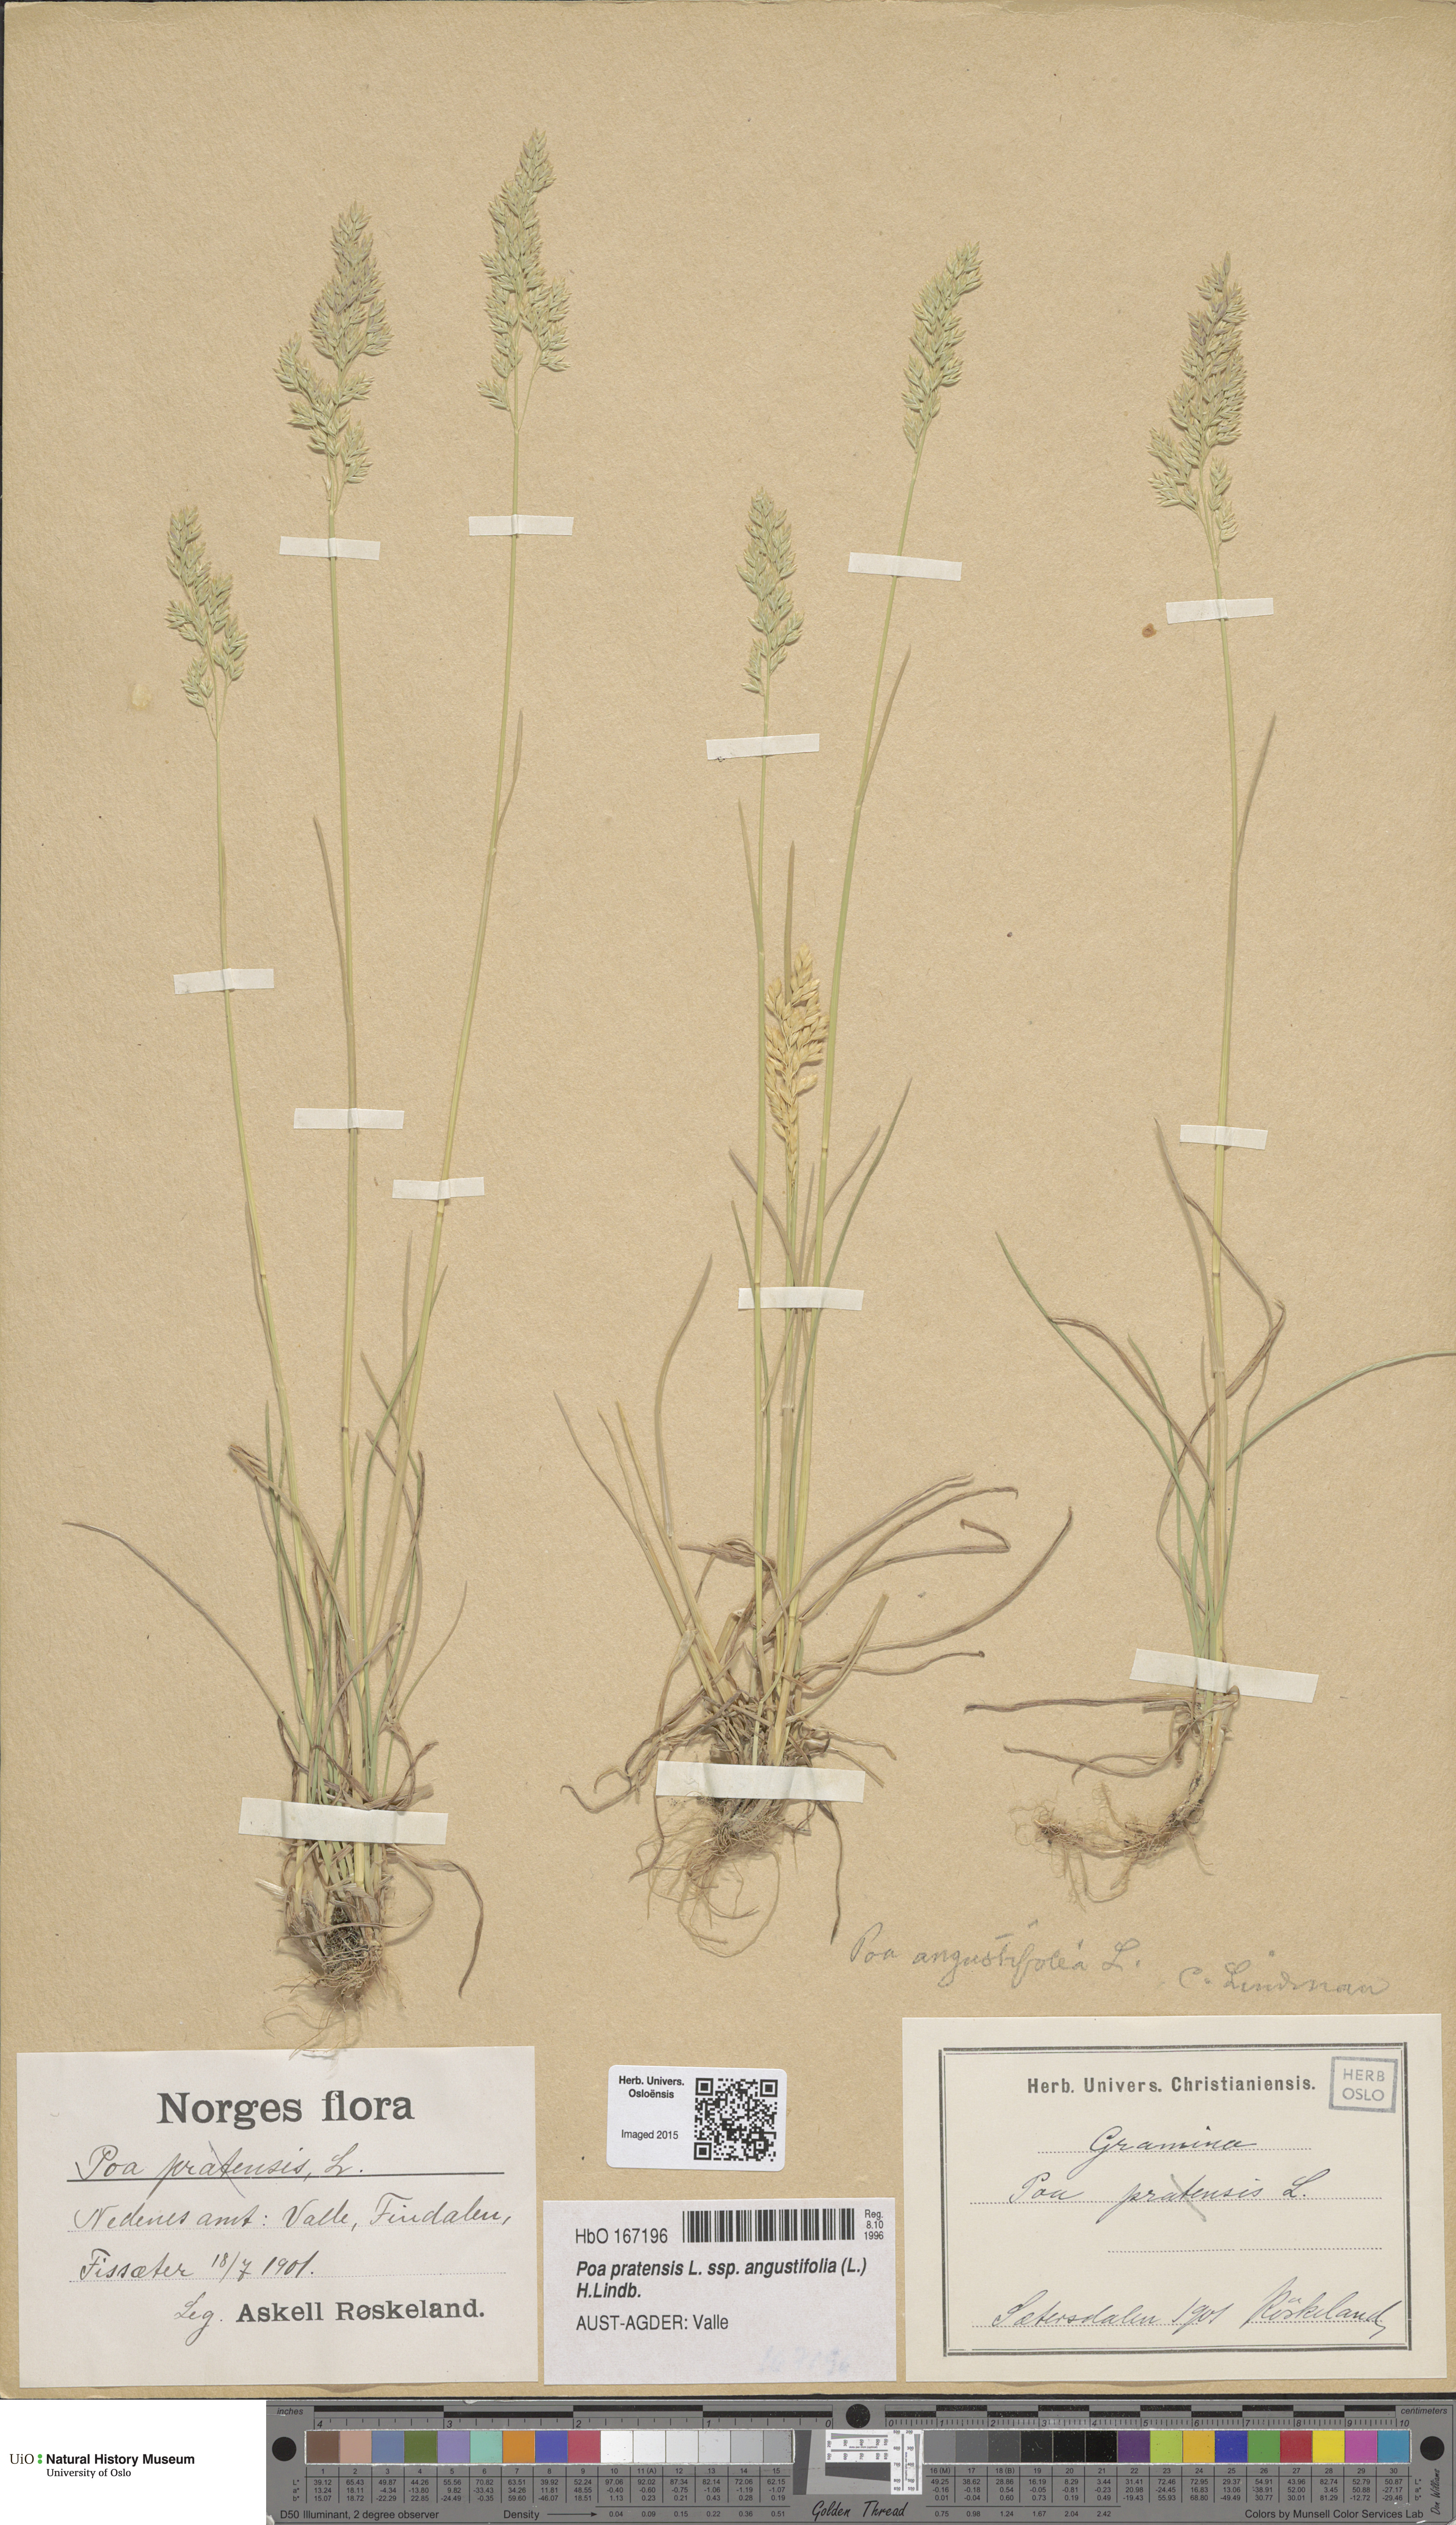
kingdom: Plantae
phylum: Tracheophyta
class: Liliopsida
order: Poales
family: Poaceae
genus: Poa
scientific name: Poa angustifolia
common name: Narrow-leaved meadow-grass
